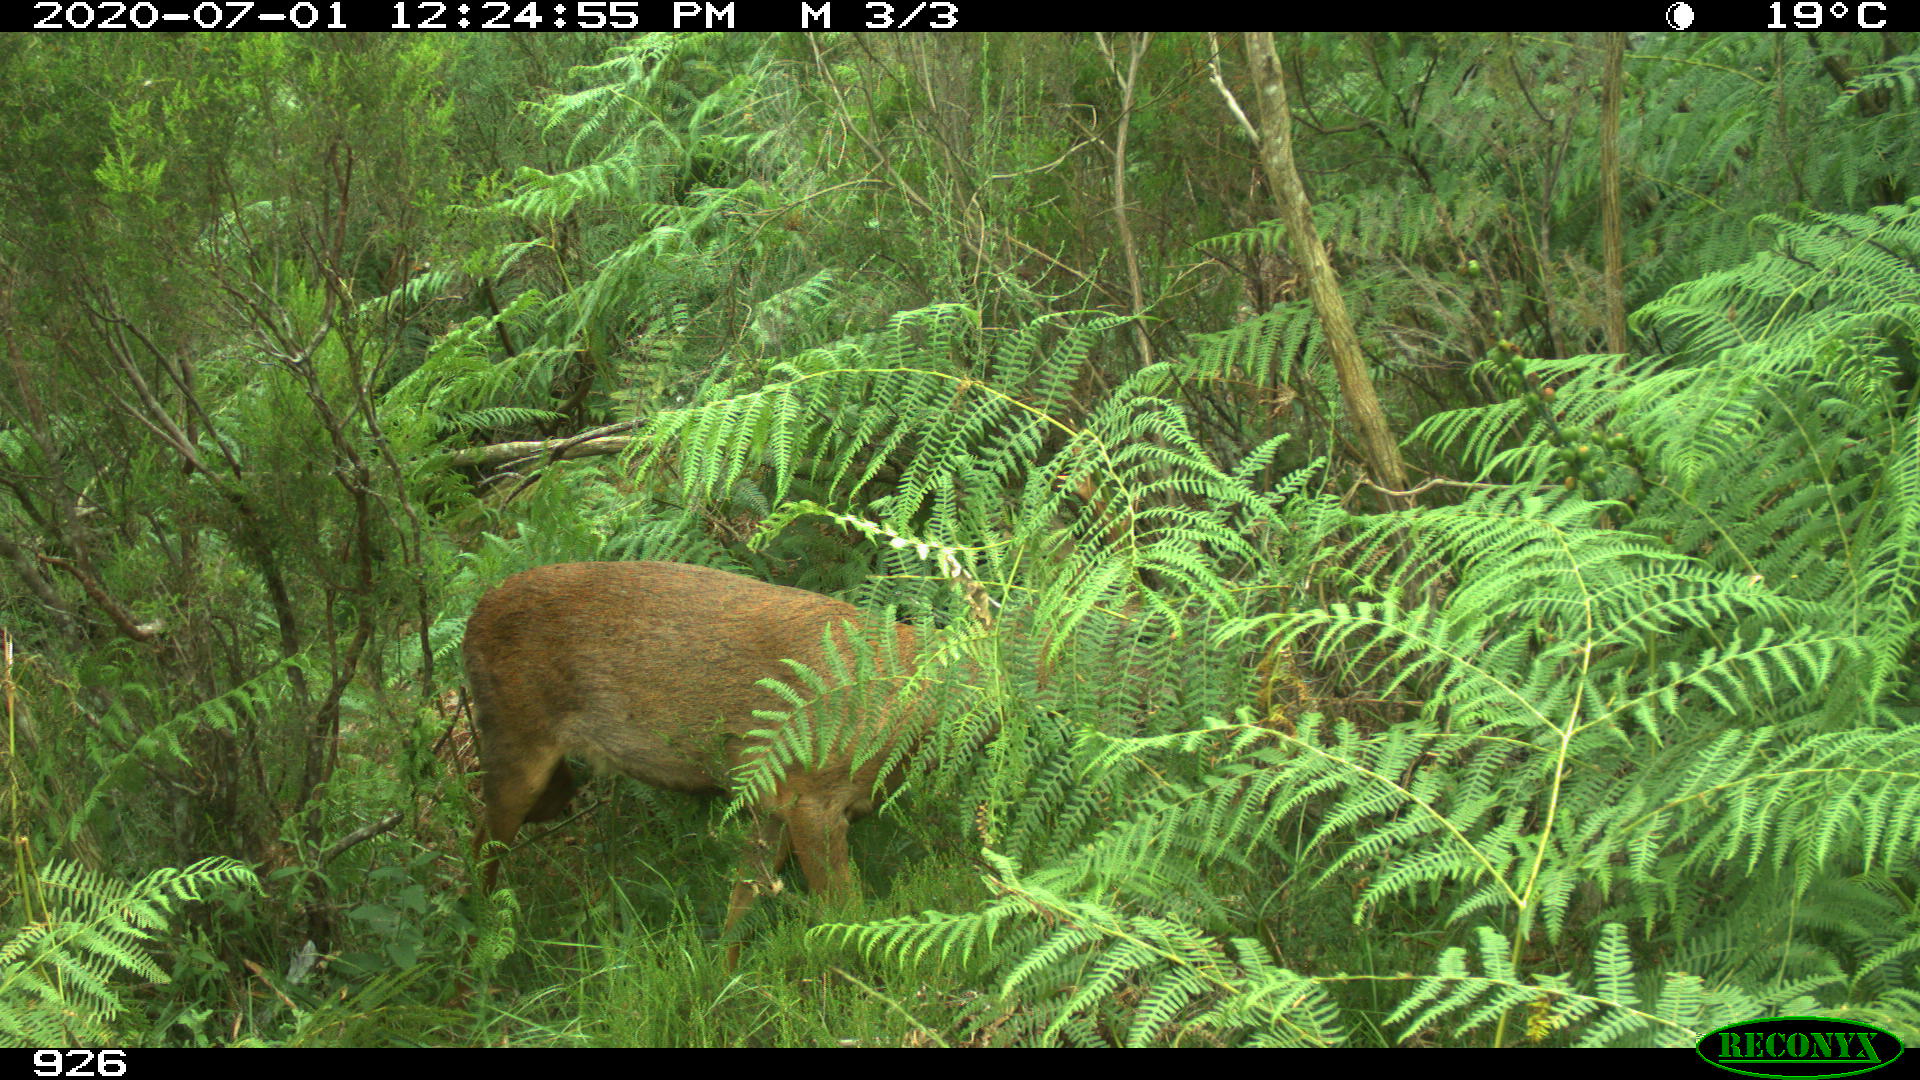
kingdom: Animalia
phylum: Chordata
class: Mammalia
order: Artiodactyla
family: Cervidae
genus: Capreolus
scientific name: Capreolus capreolus
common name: Western roe deer
